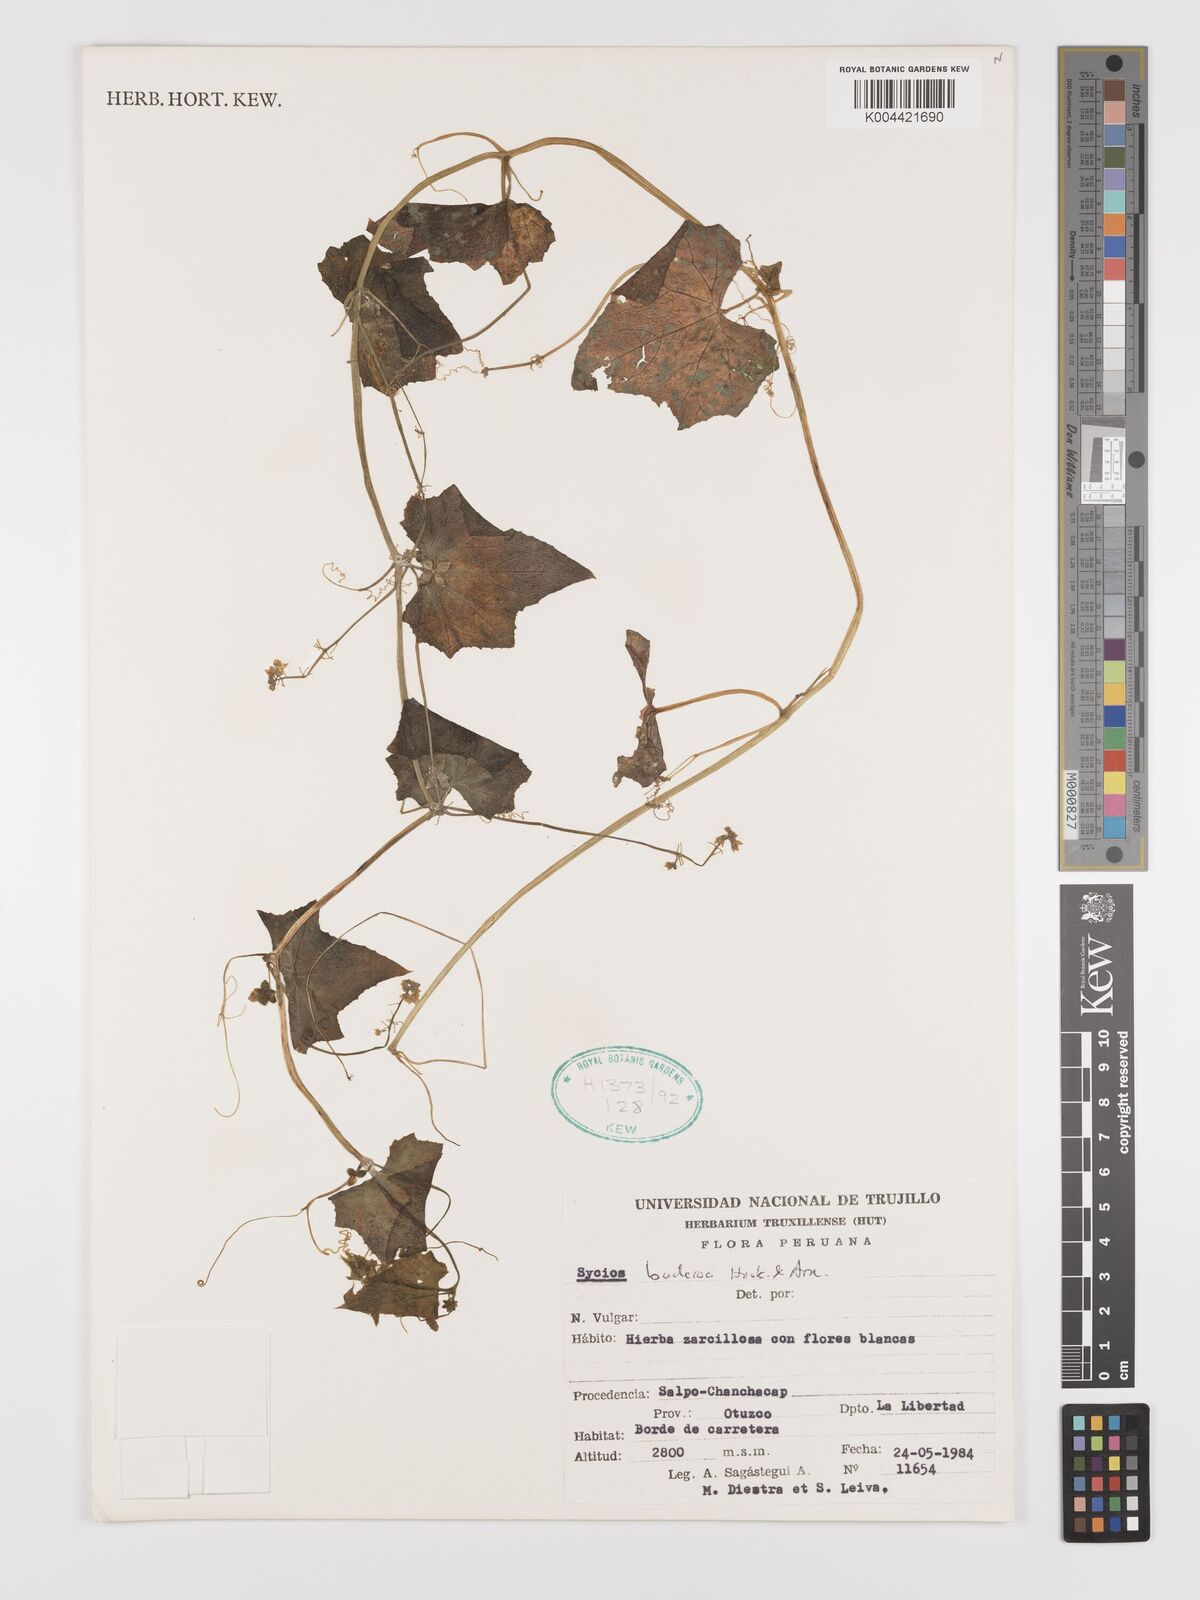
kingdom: Plantae
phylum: Tracheophyta
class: Magnoliopsida
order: Cucurbitales
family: Cucurbitaceae
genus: Sicyos
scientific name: Sicyos baderoa
